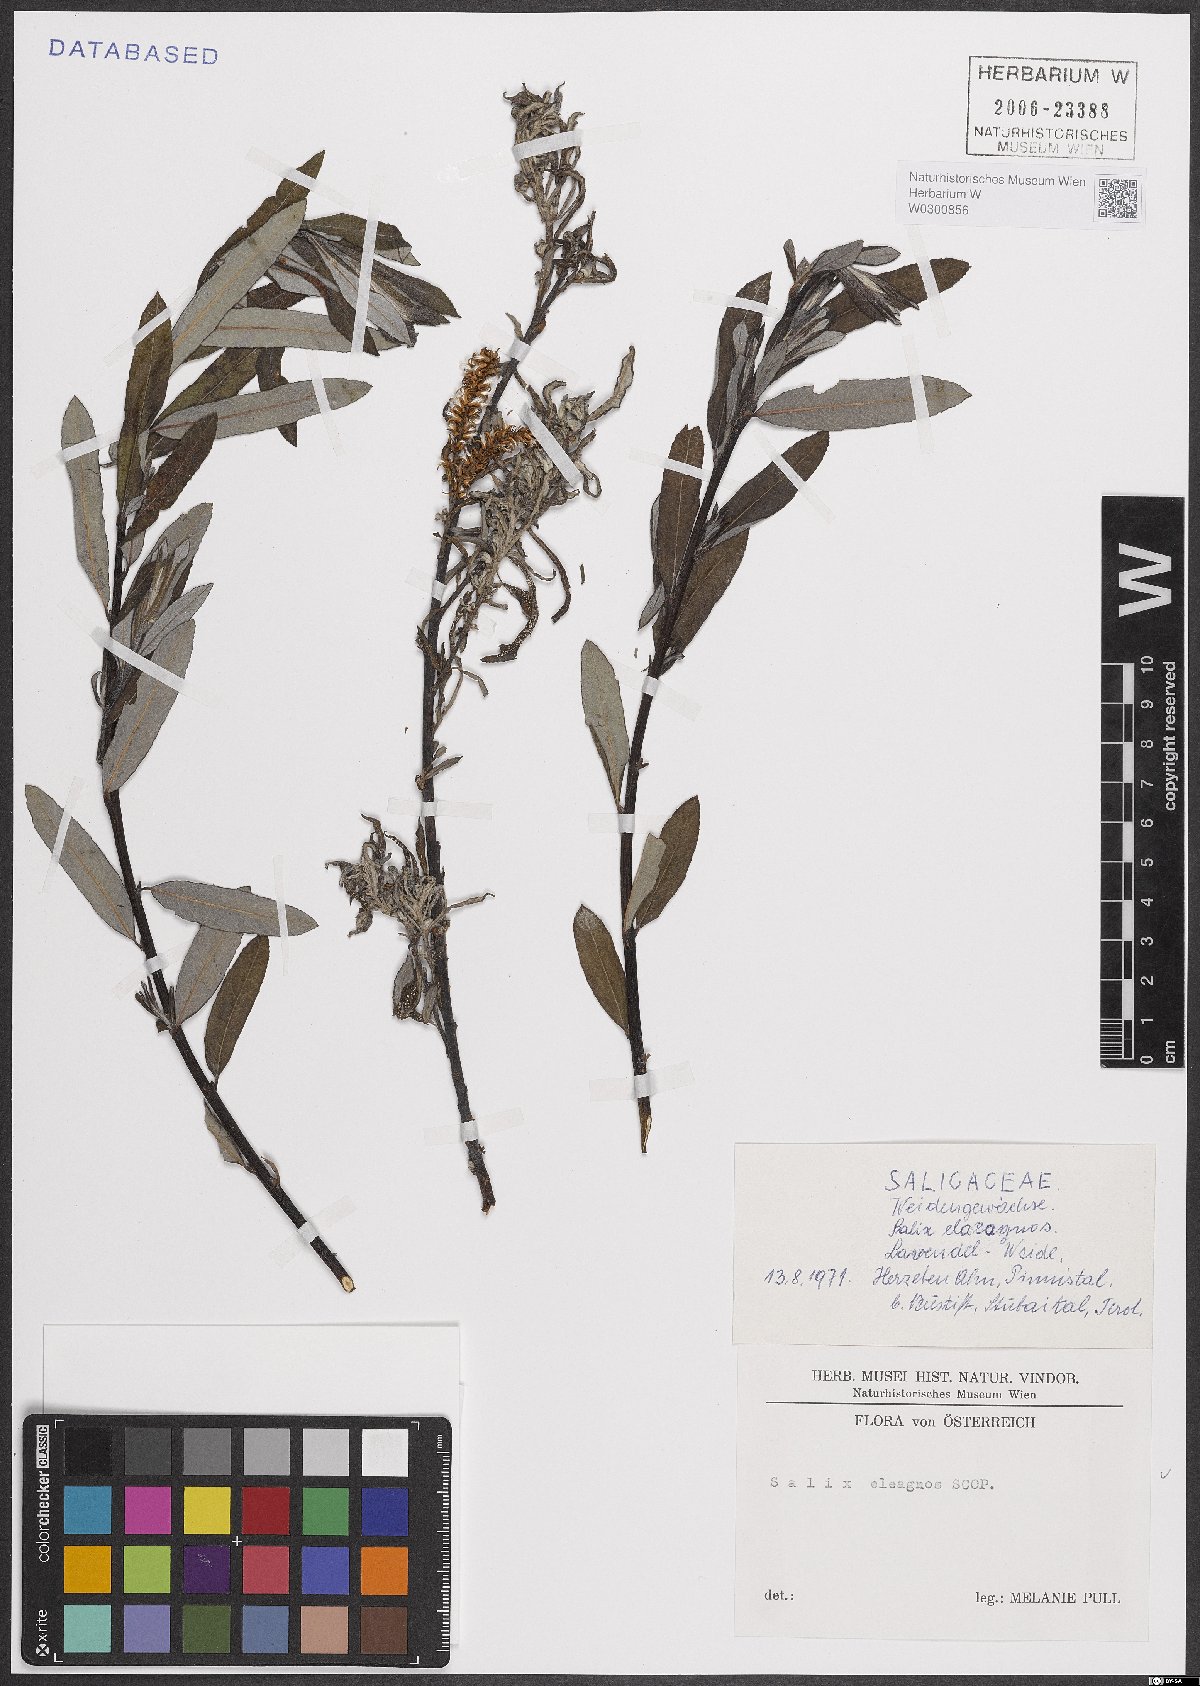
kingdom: Plantae
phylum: Tracheophyta
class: Magnoliopsida
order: Malpighiales
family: Salicaceae
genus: Salix
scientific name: Salix eleagnos
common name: Elaeagnus willow
